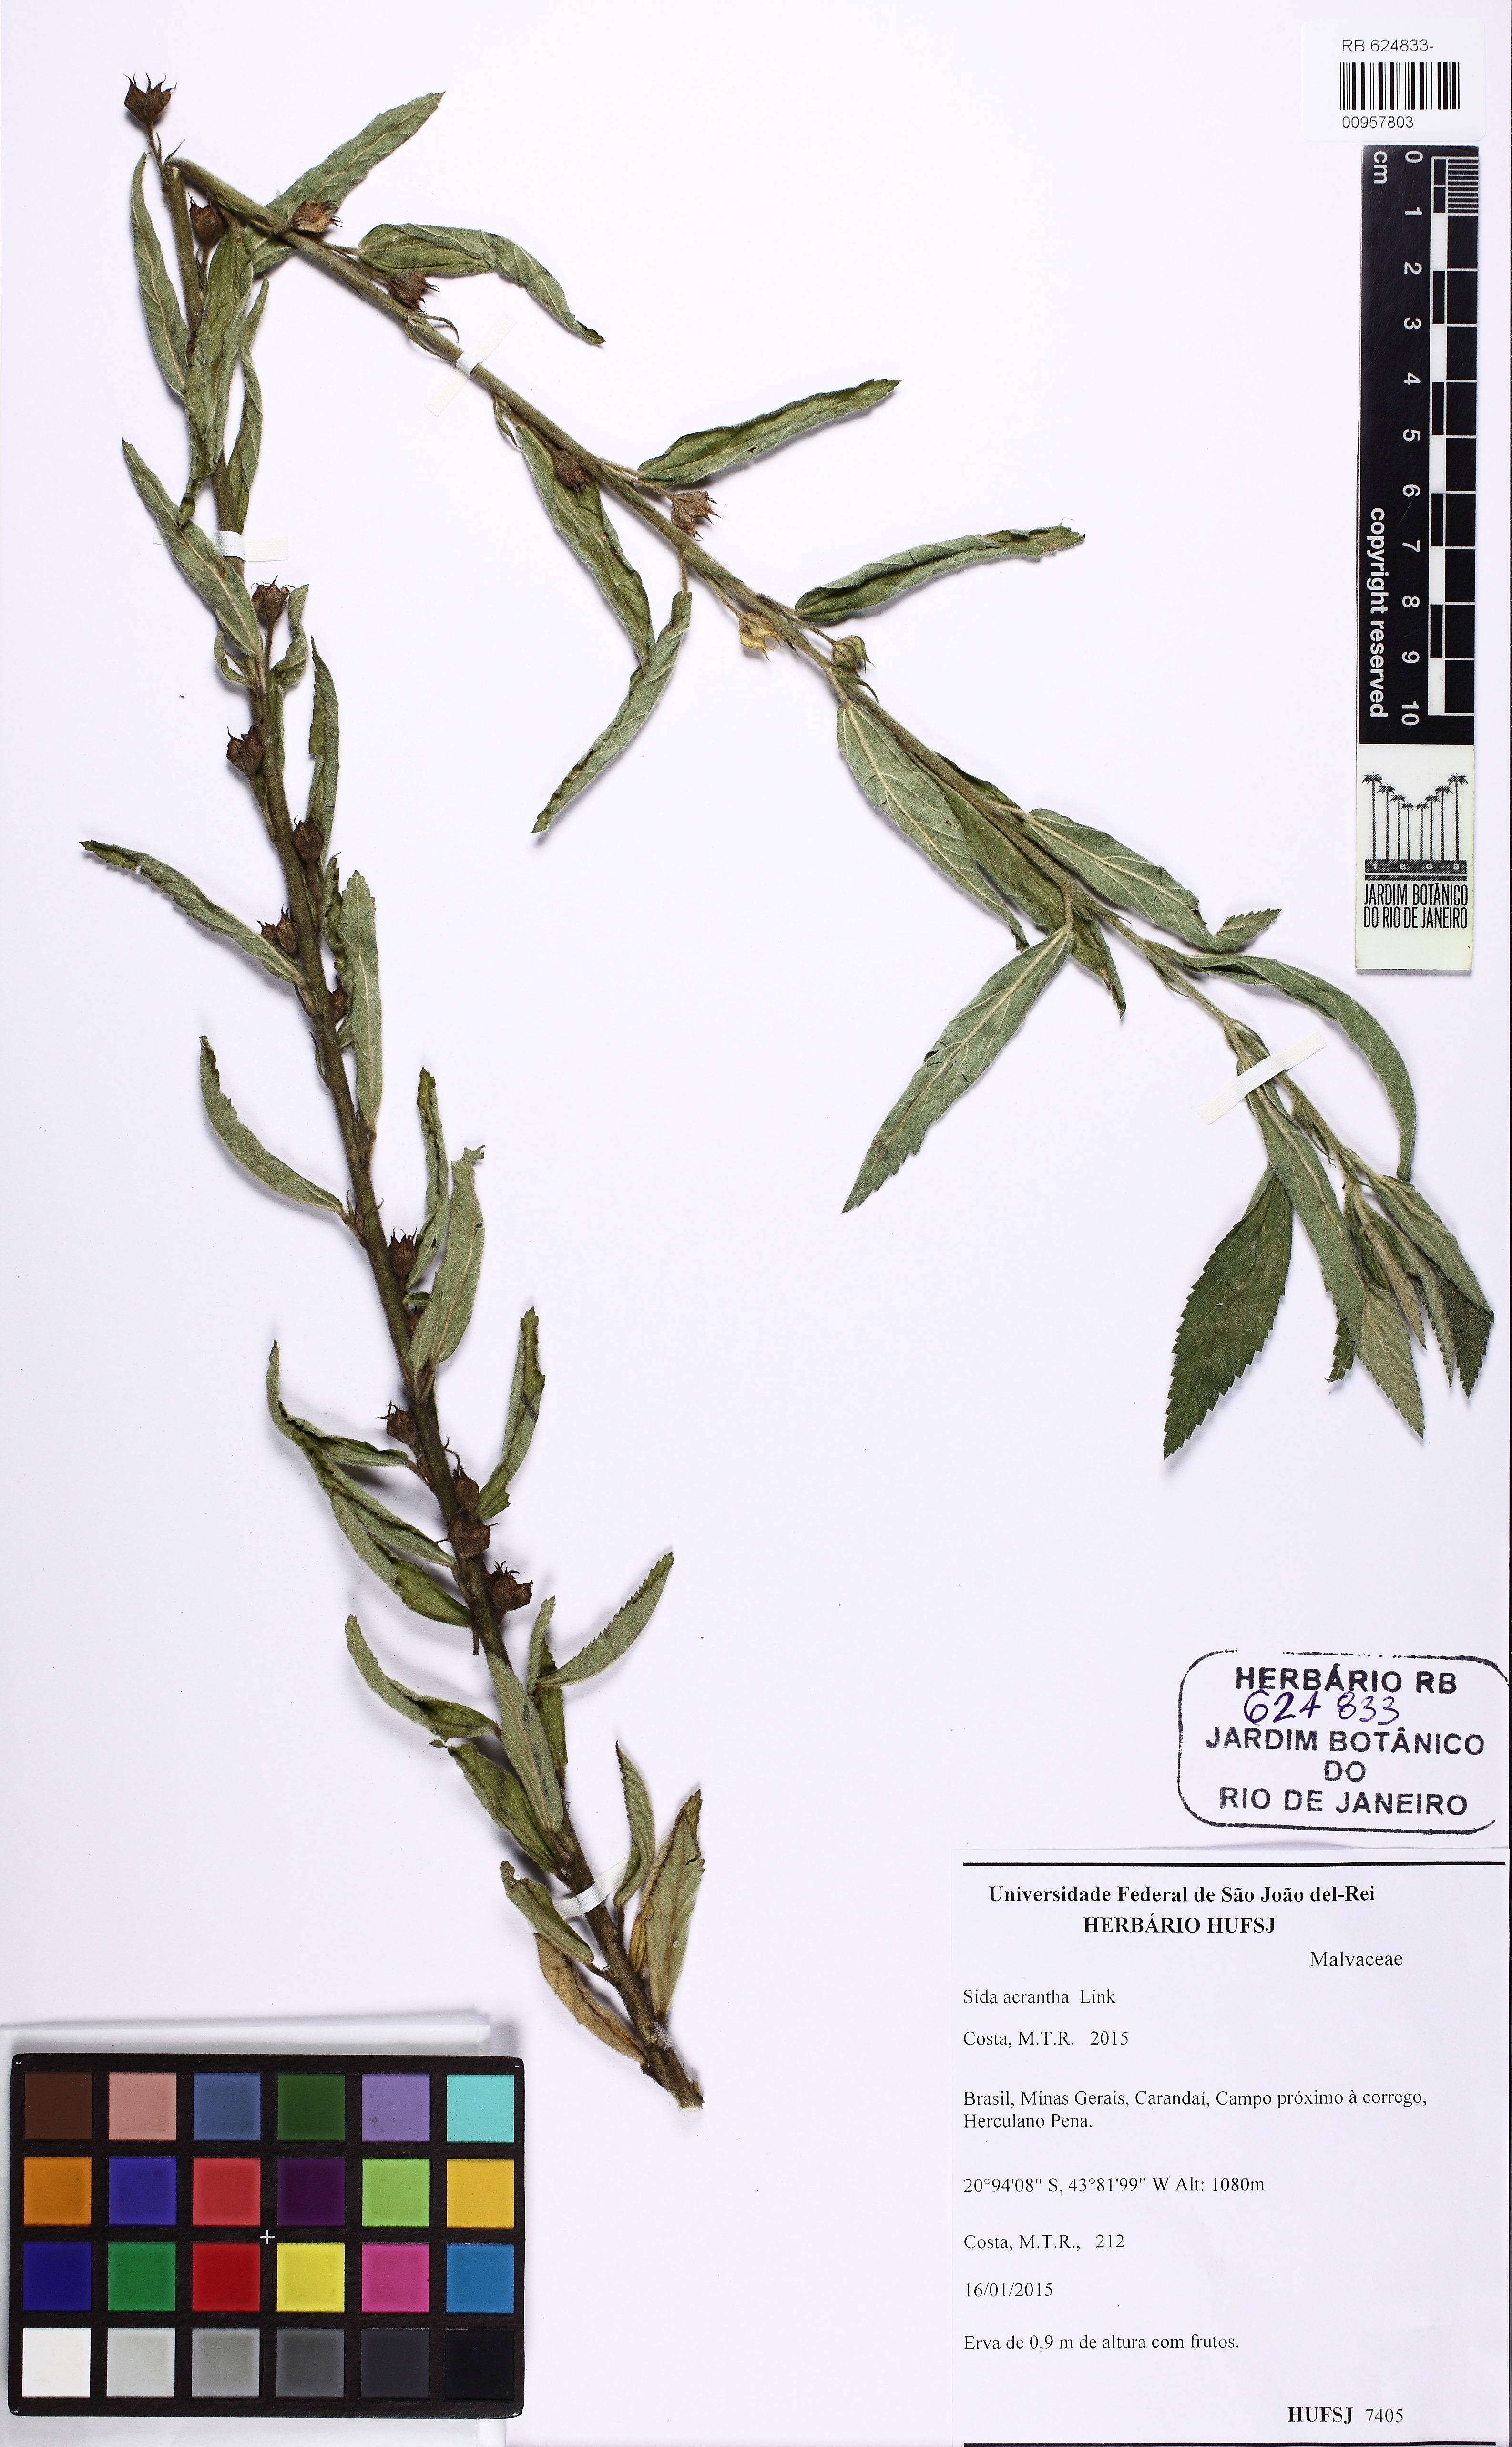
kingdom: Plantae
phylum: Tracheophyta
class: Magnoliopsida
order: Malvales
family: Malvaceae
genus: Sida
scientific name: Sida acrantha
